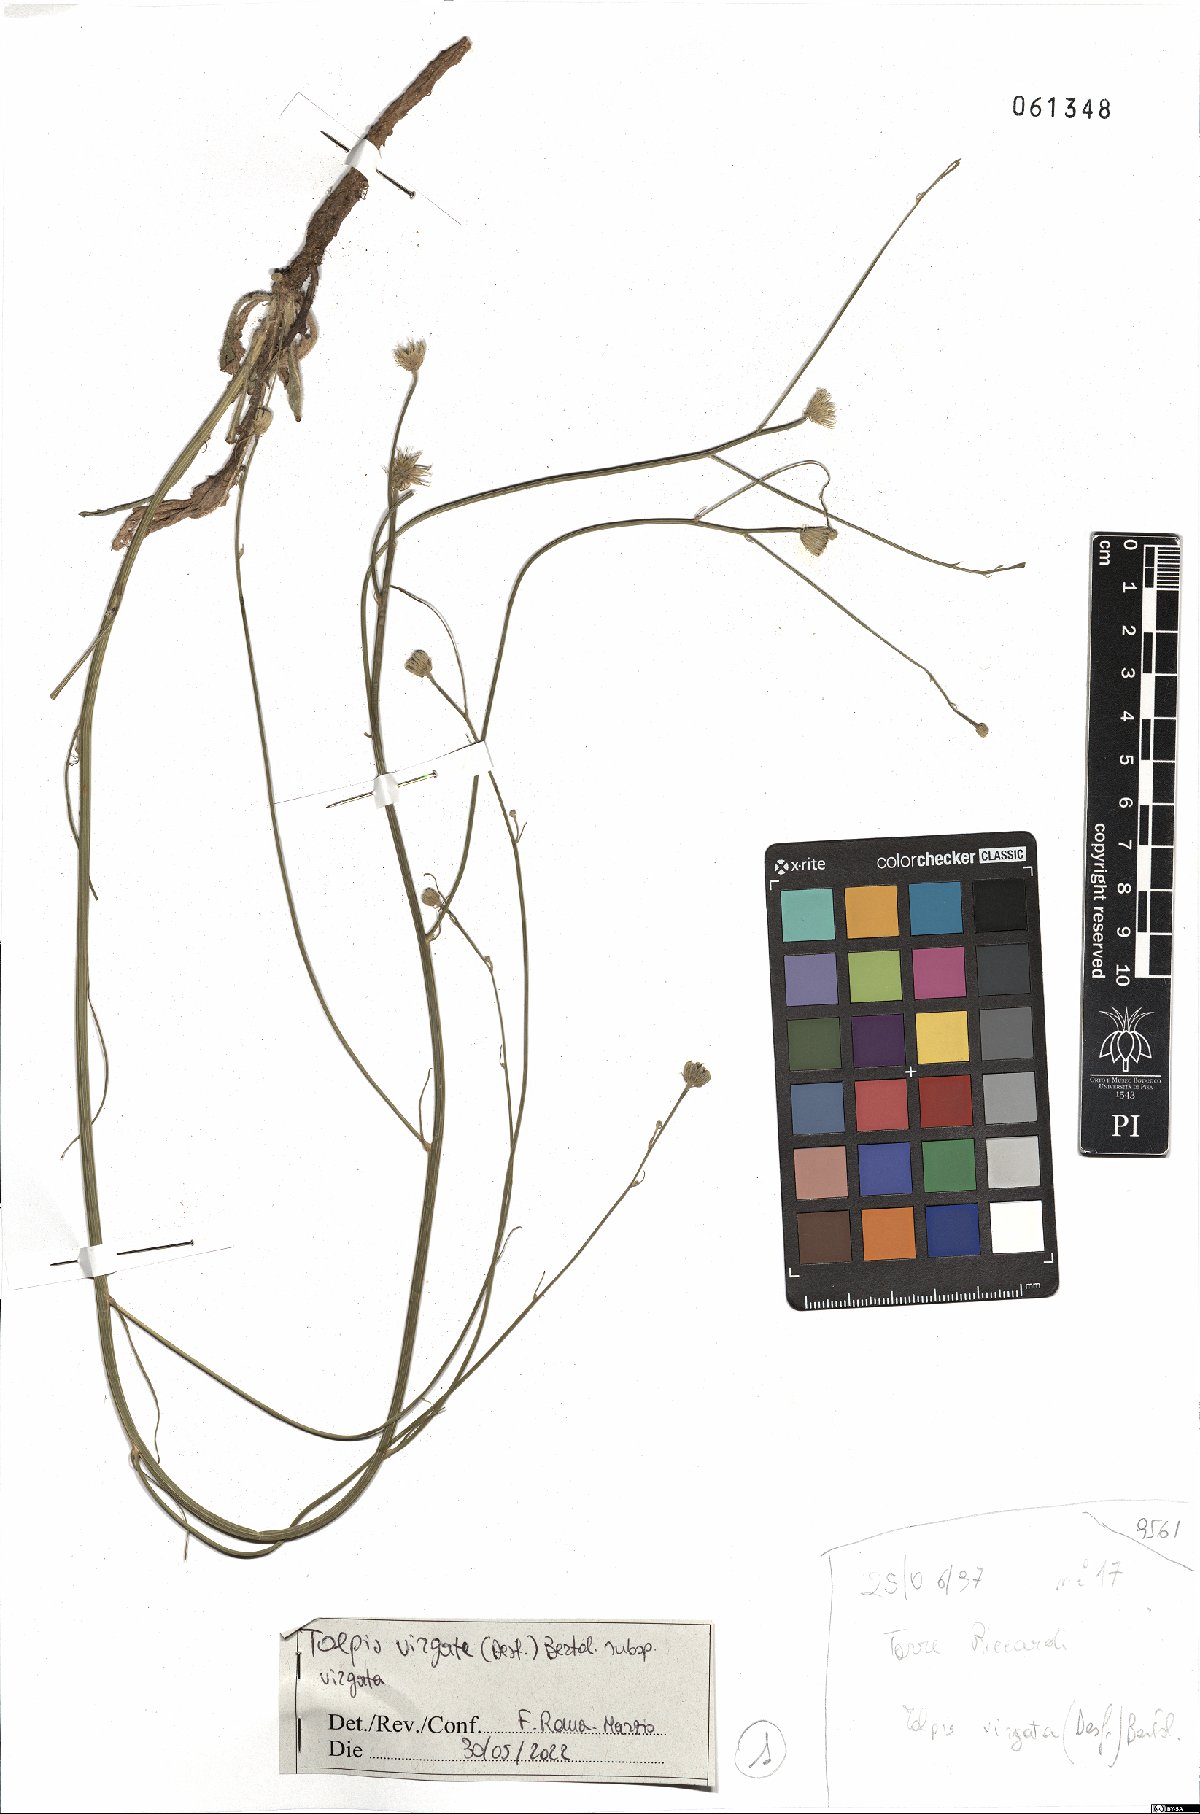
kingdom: Plantae
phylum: Tracheophyta
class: Magnoliopsida
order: Asterales
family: Asteraceae
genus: Tolpis
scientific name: Tolpis virgata
